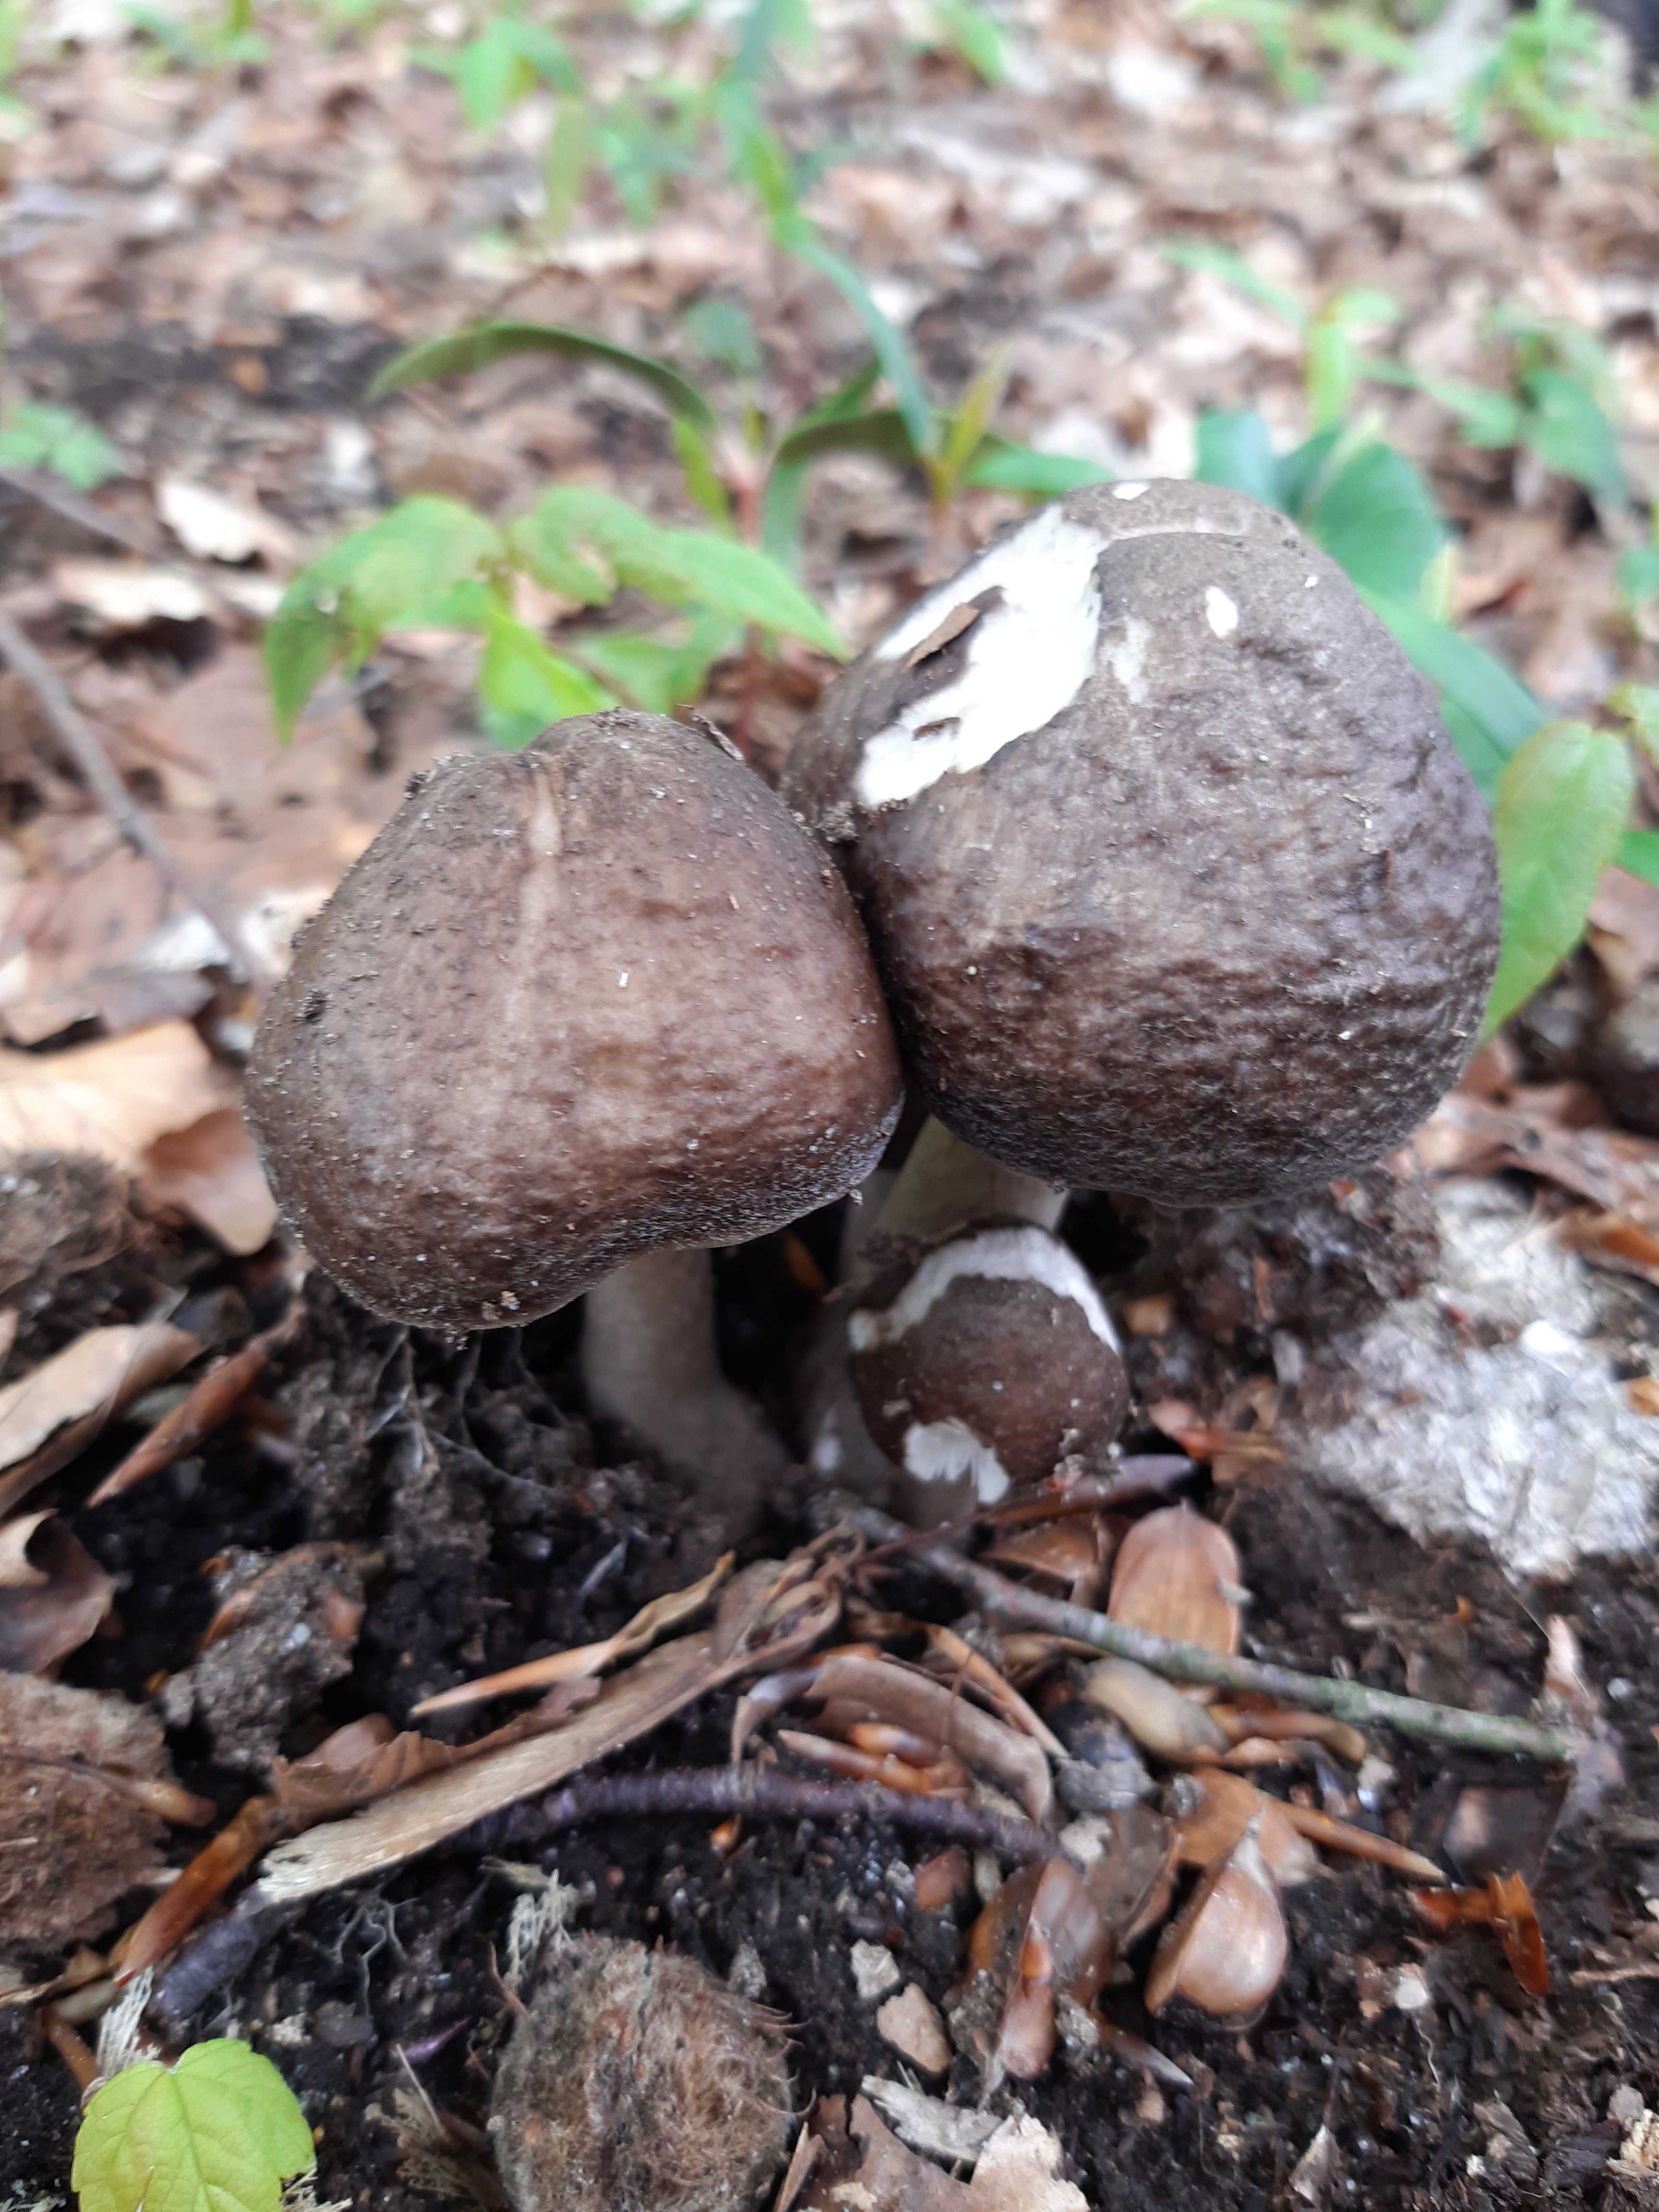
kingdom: Fungi
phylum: Basidiomycota
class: Agaricomycetes
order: Agaricales
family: Pluteaceae
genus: Pluteus
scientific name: Pluteus cervinus
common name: sodfarvet skærmhat
